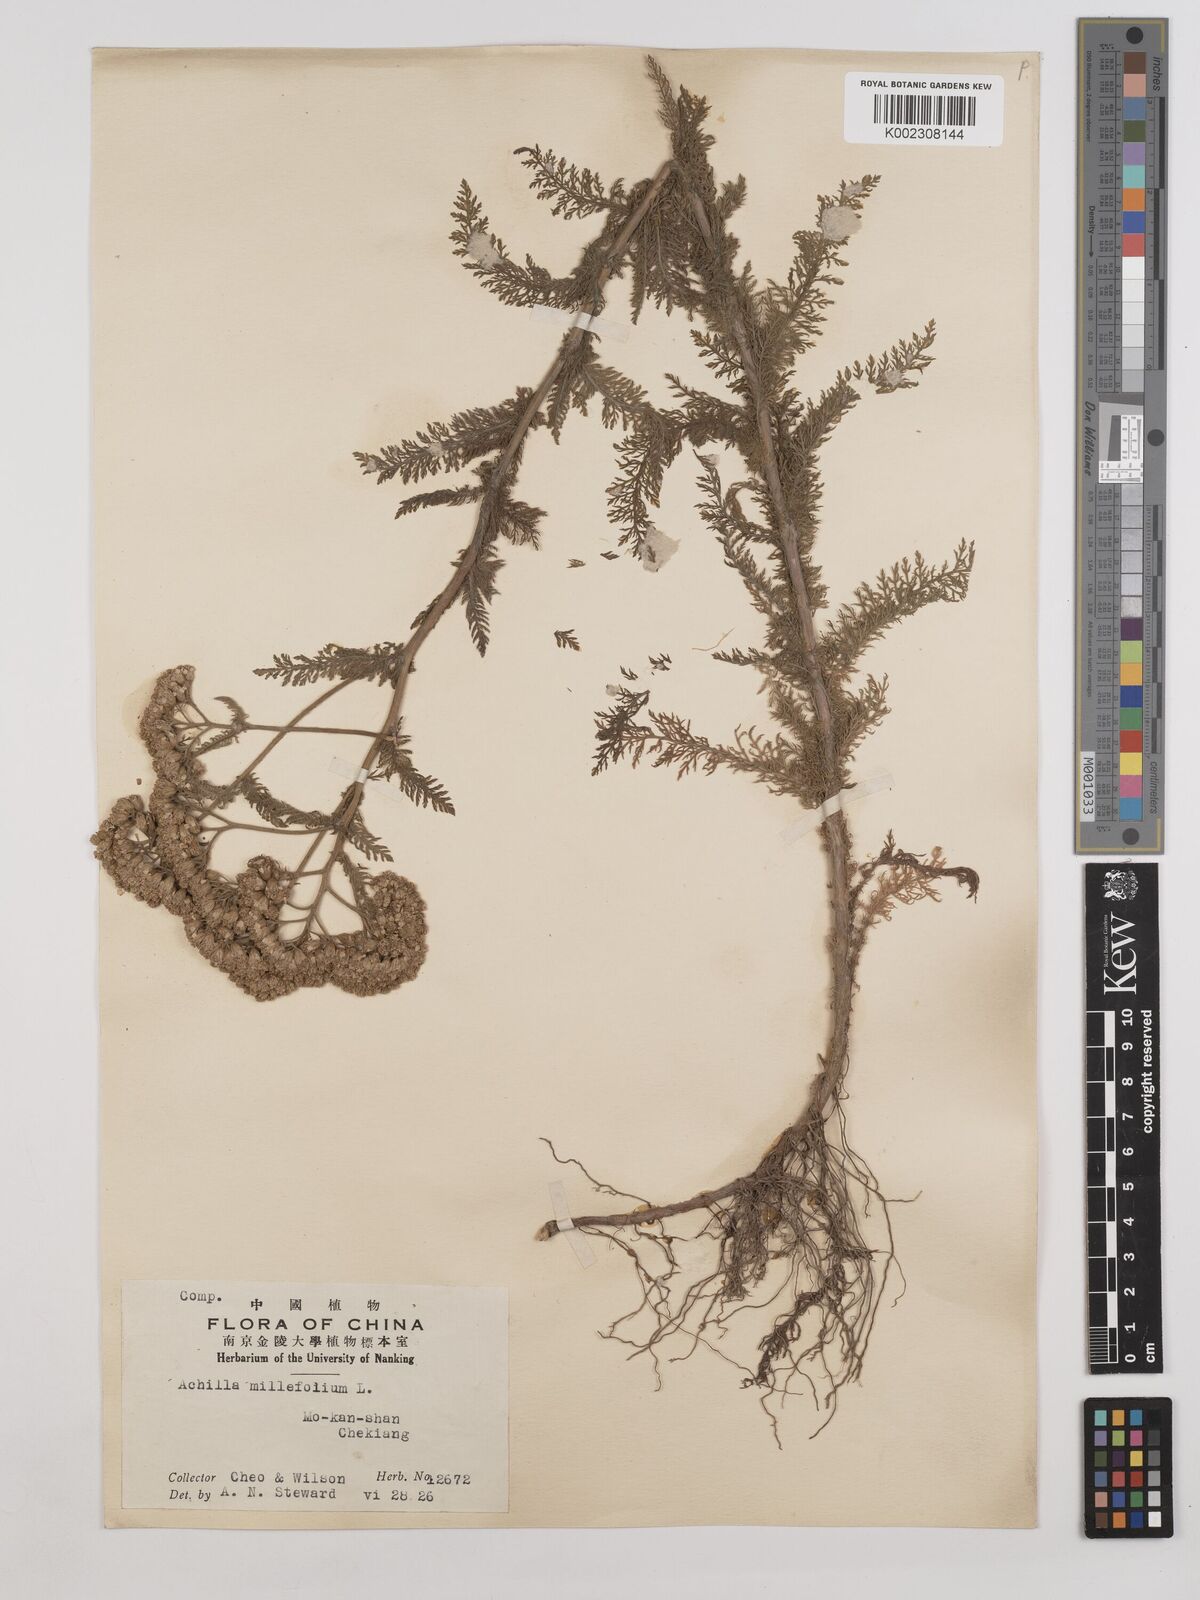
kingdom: Plantae
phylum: Tracheophyta
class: Magnoliopsida
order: Asterales
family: Asteraceae
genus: Achillea
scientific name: Achillea millefolium
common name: Yarrow
